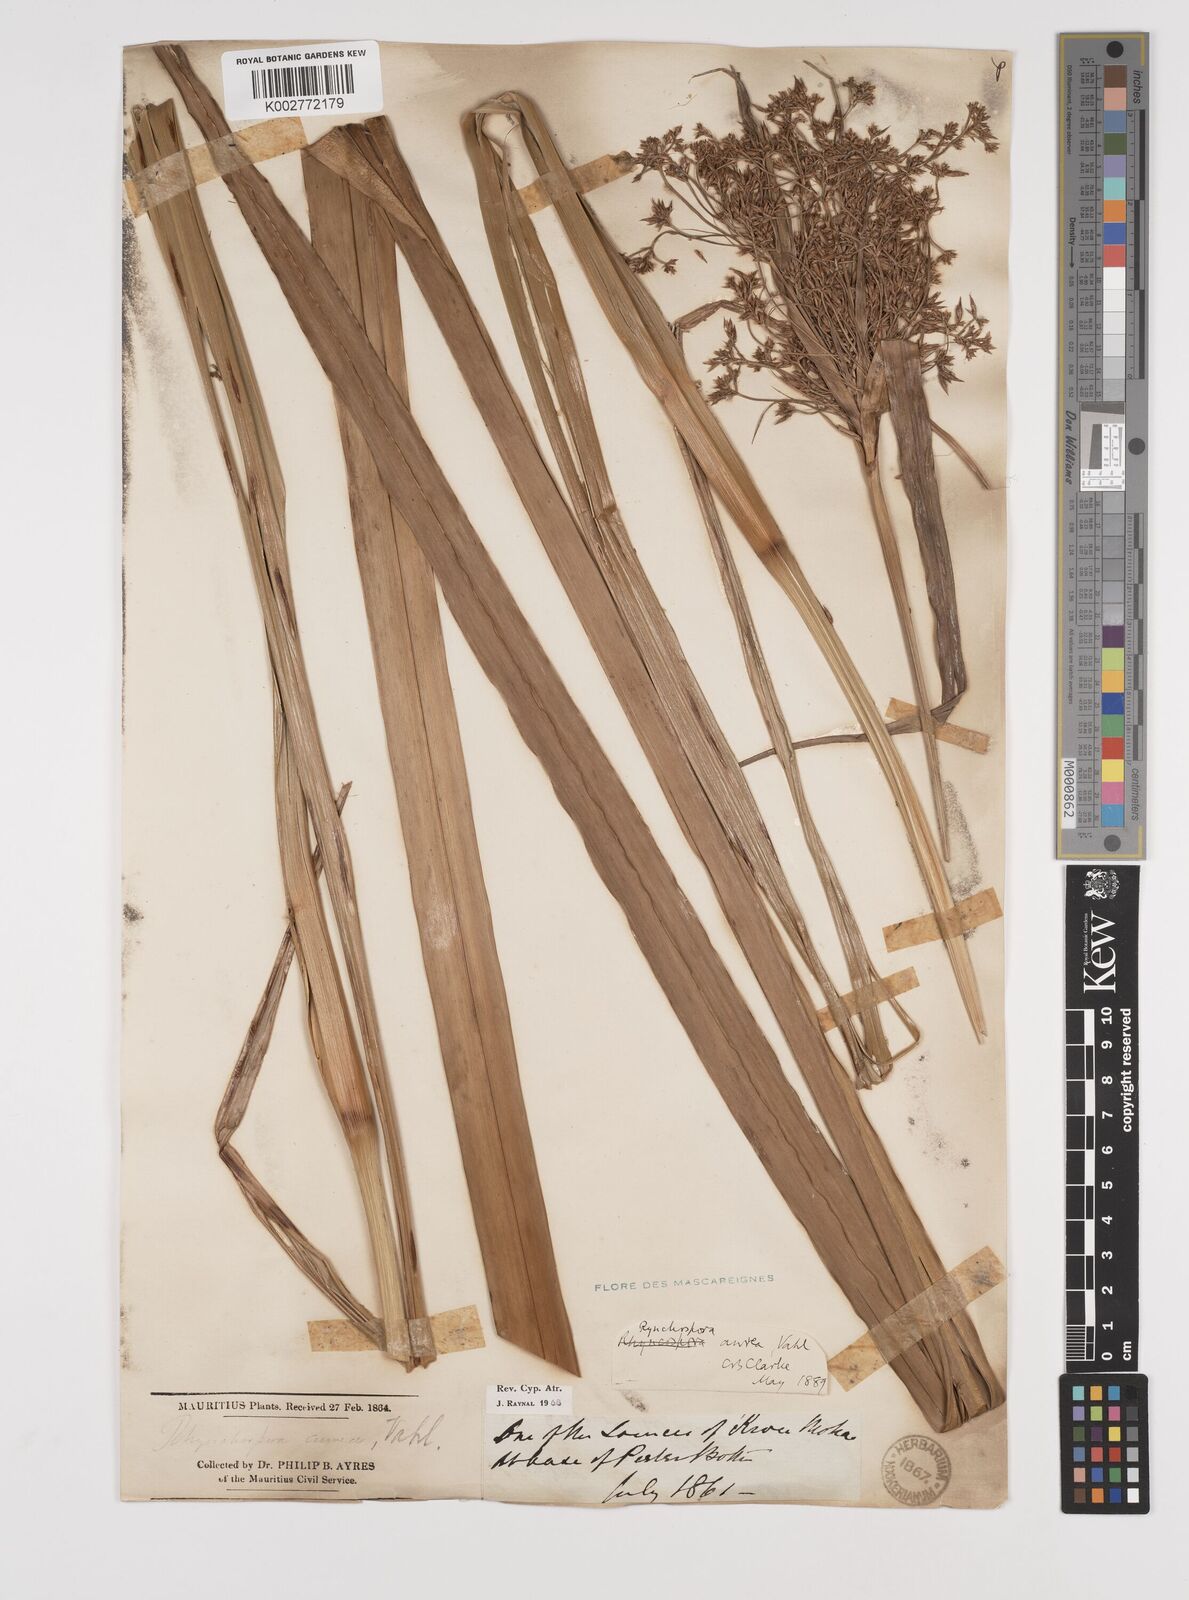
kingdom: Plantae
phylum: Tracheophyta
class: Liliopsida
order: Poales
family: Cyperaceae
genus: Rhynchospora
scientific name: Rhynchospora corymbosa
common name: Golden beak sedge
